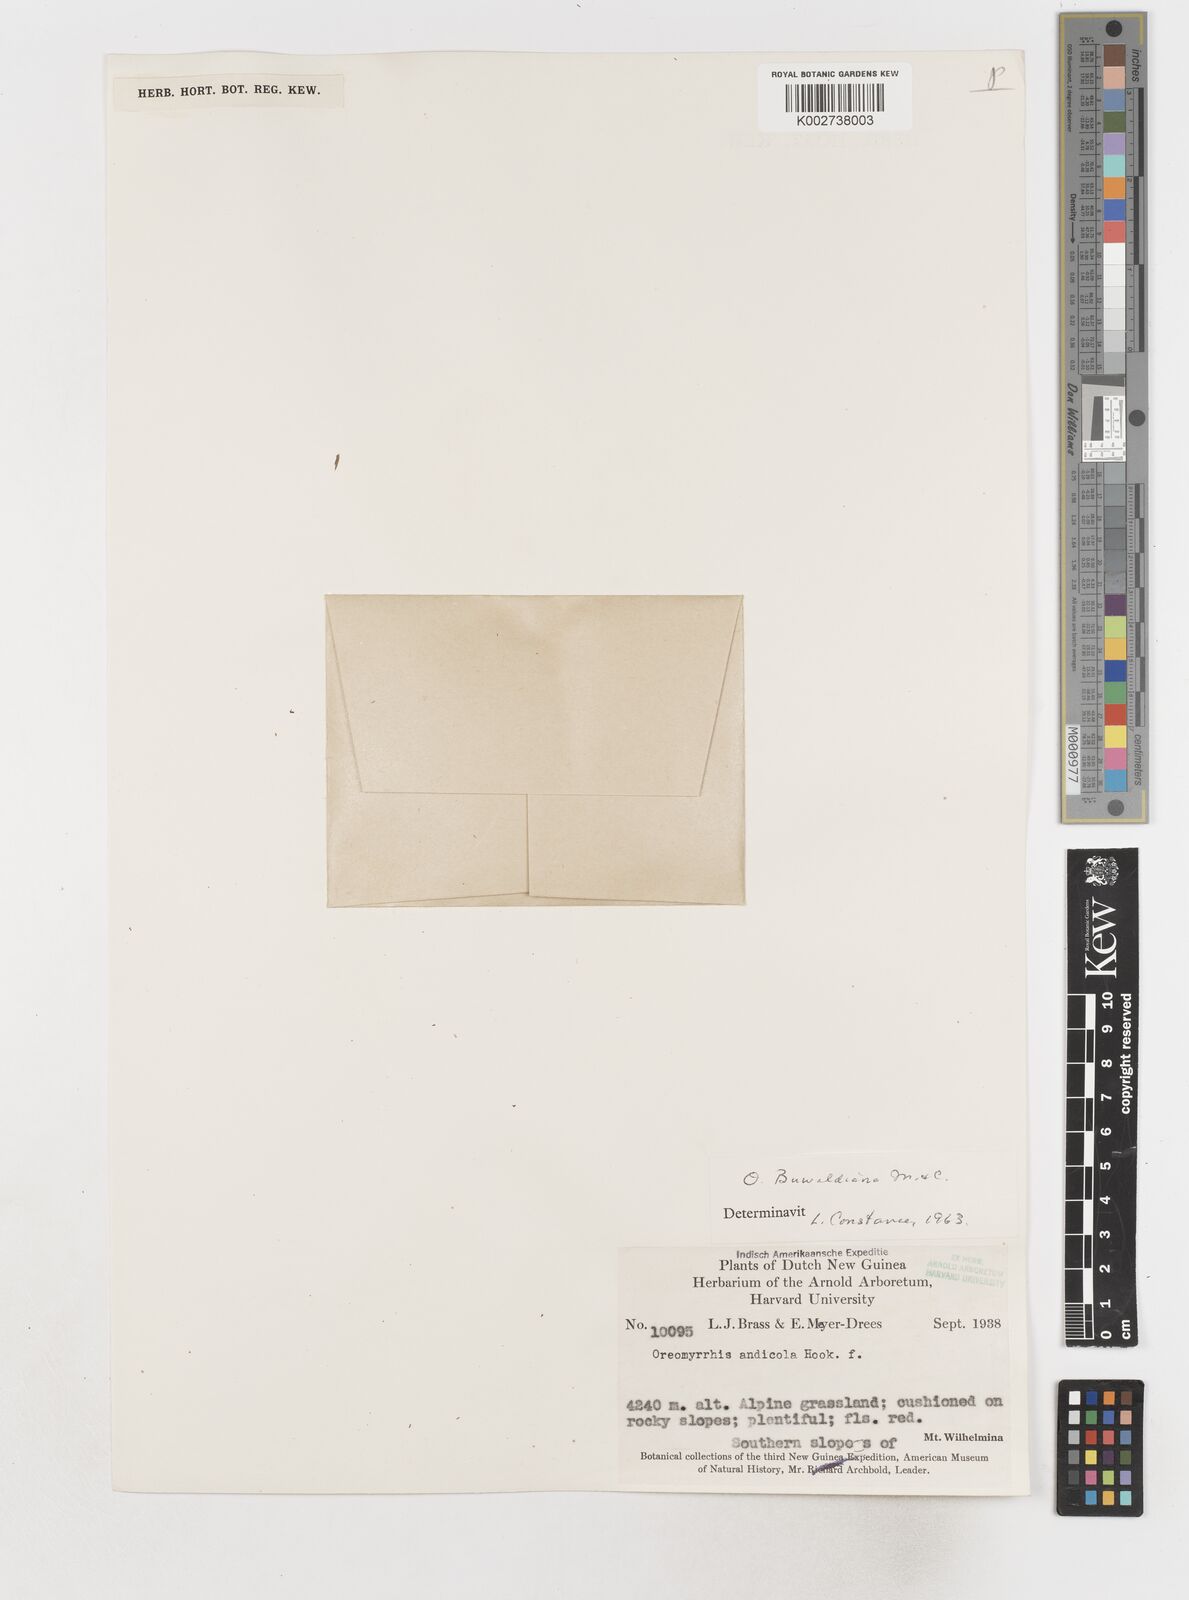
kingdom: Plantae
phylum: Tracheophyta
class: Magnoliopsida
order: Apiales
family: Apiaceae
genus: Chaerophyllum
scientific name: Chaerophyllum andicola
